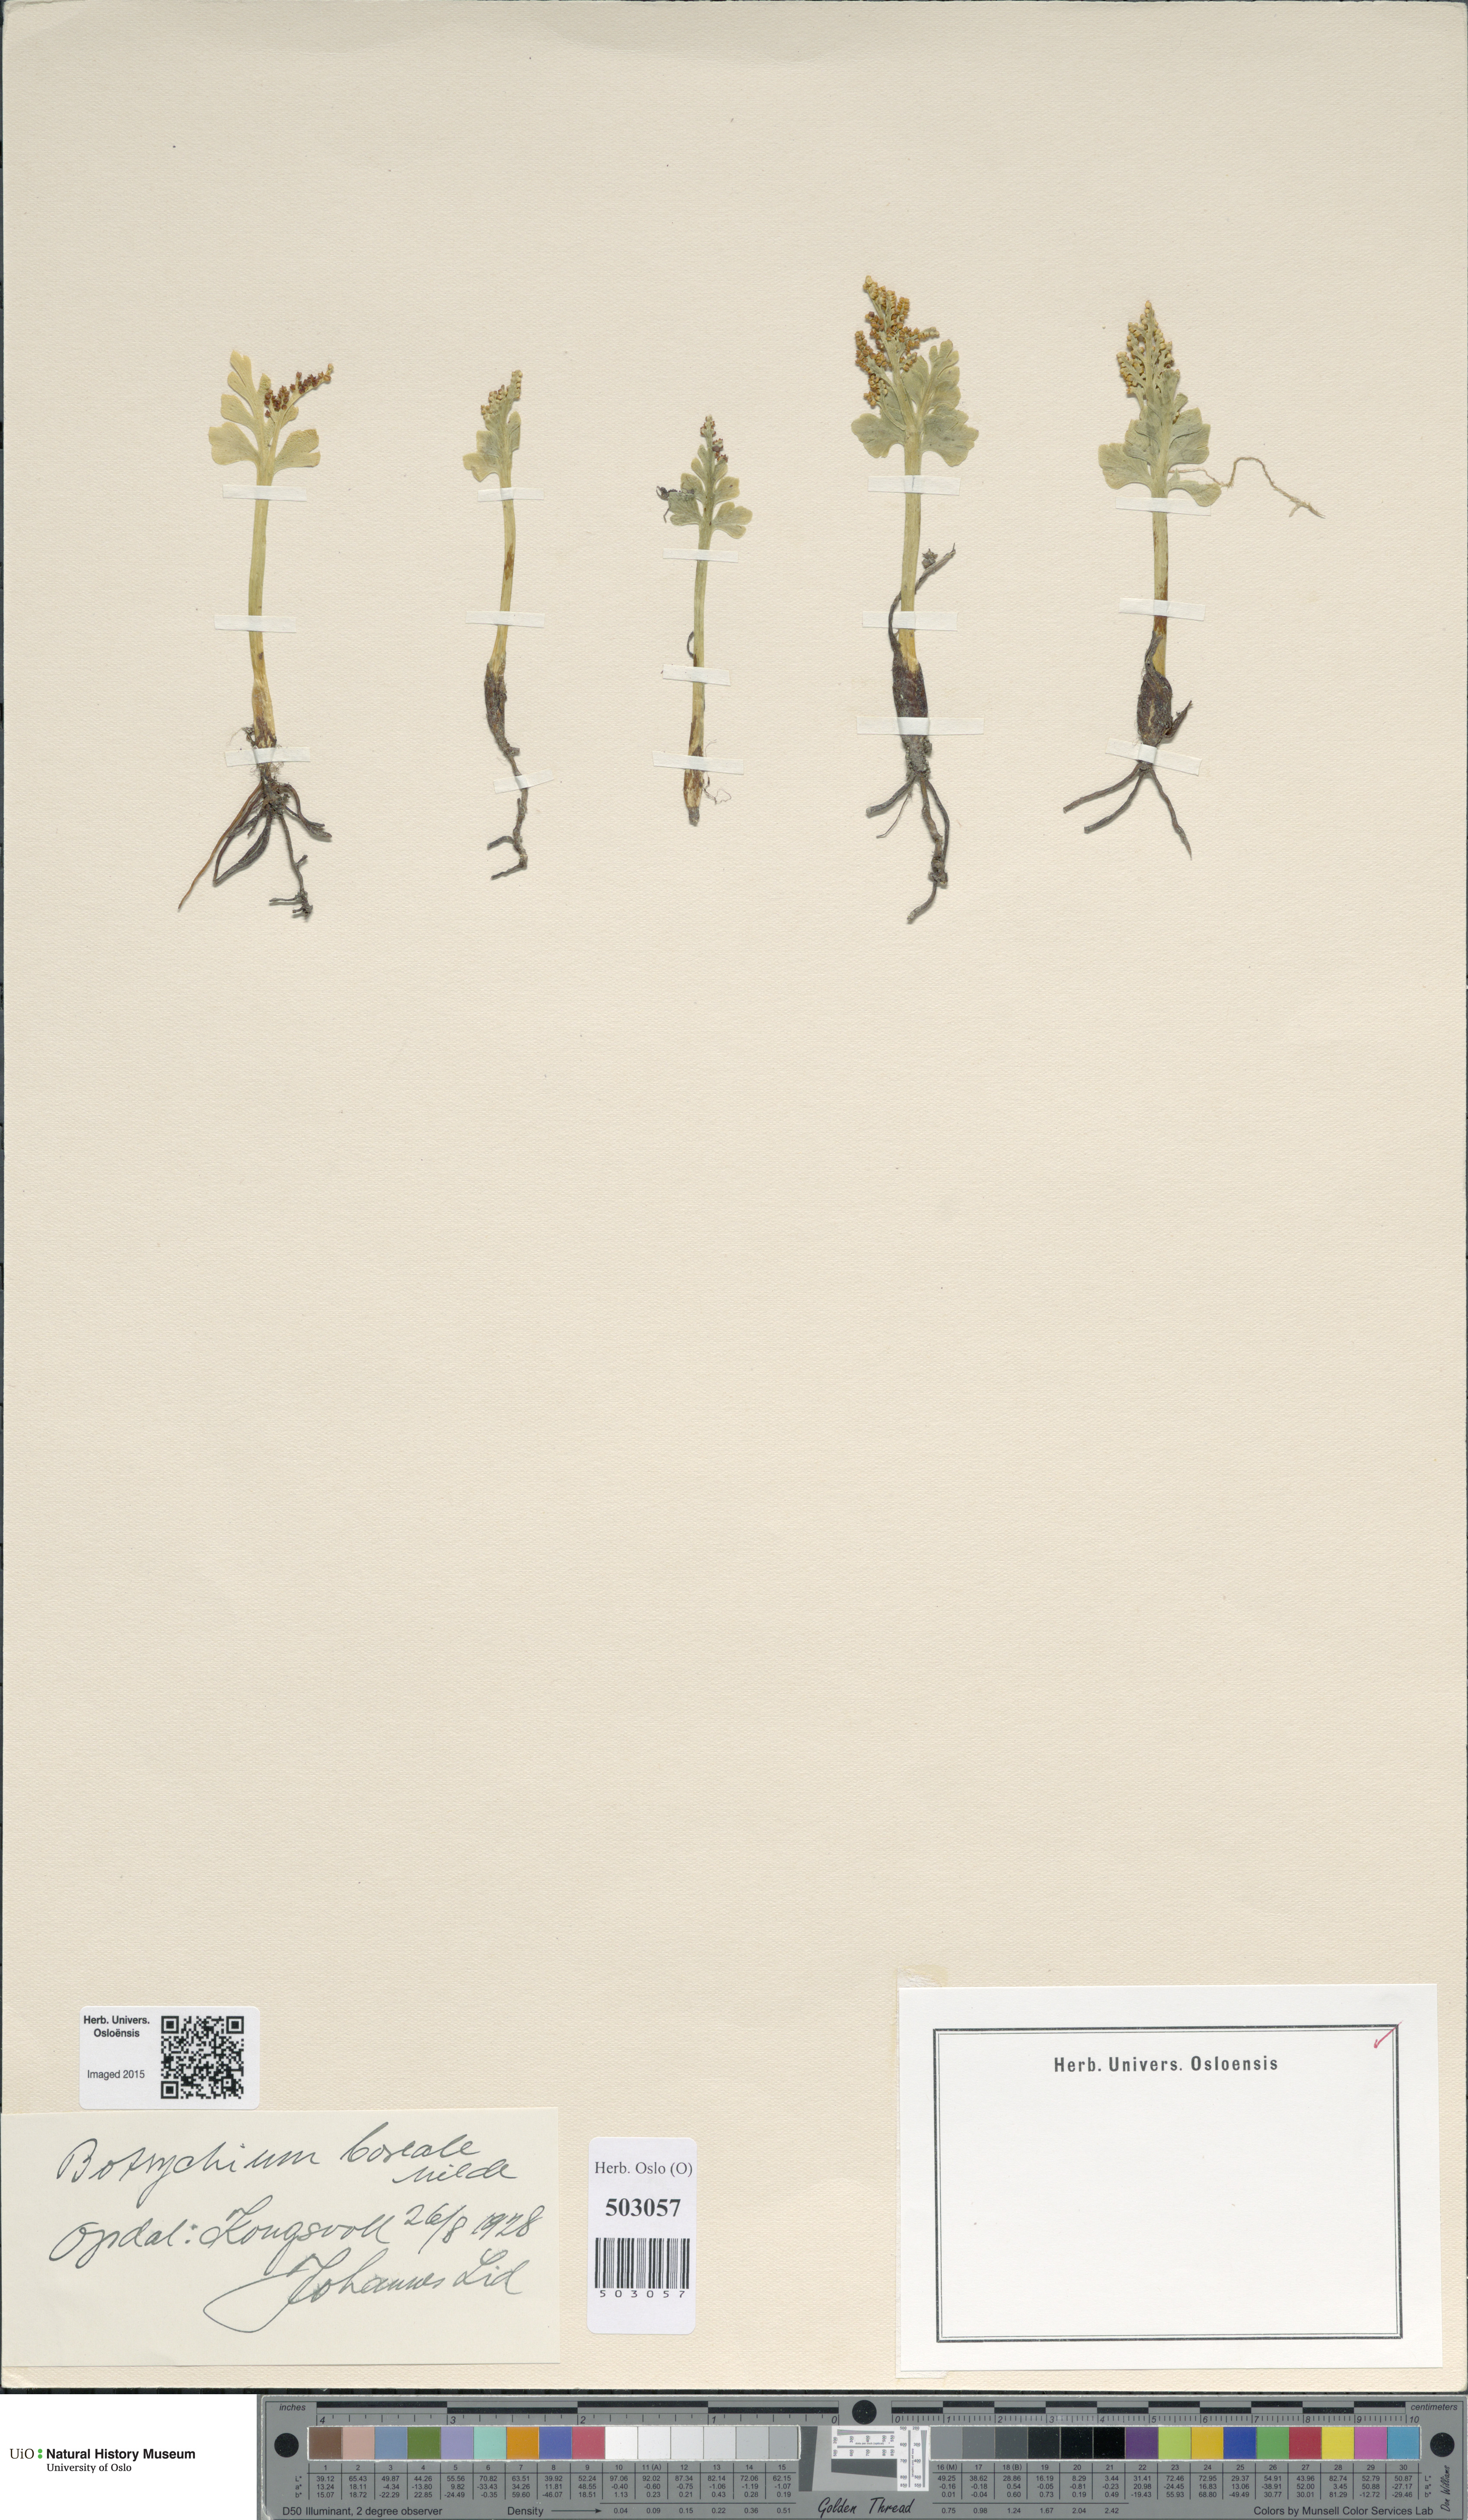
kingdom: Plantae
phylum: Tracheophyta
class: Polypodiopsida
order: Ophioglossales
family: Ophioglossaceae
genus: Botrychium
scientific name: Botrychium boreale
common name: Boreal moonwort
